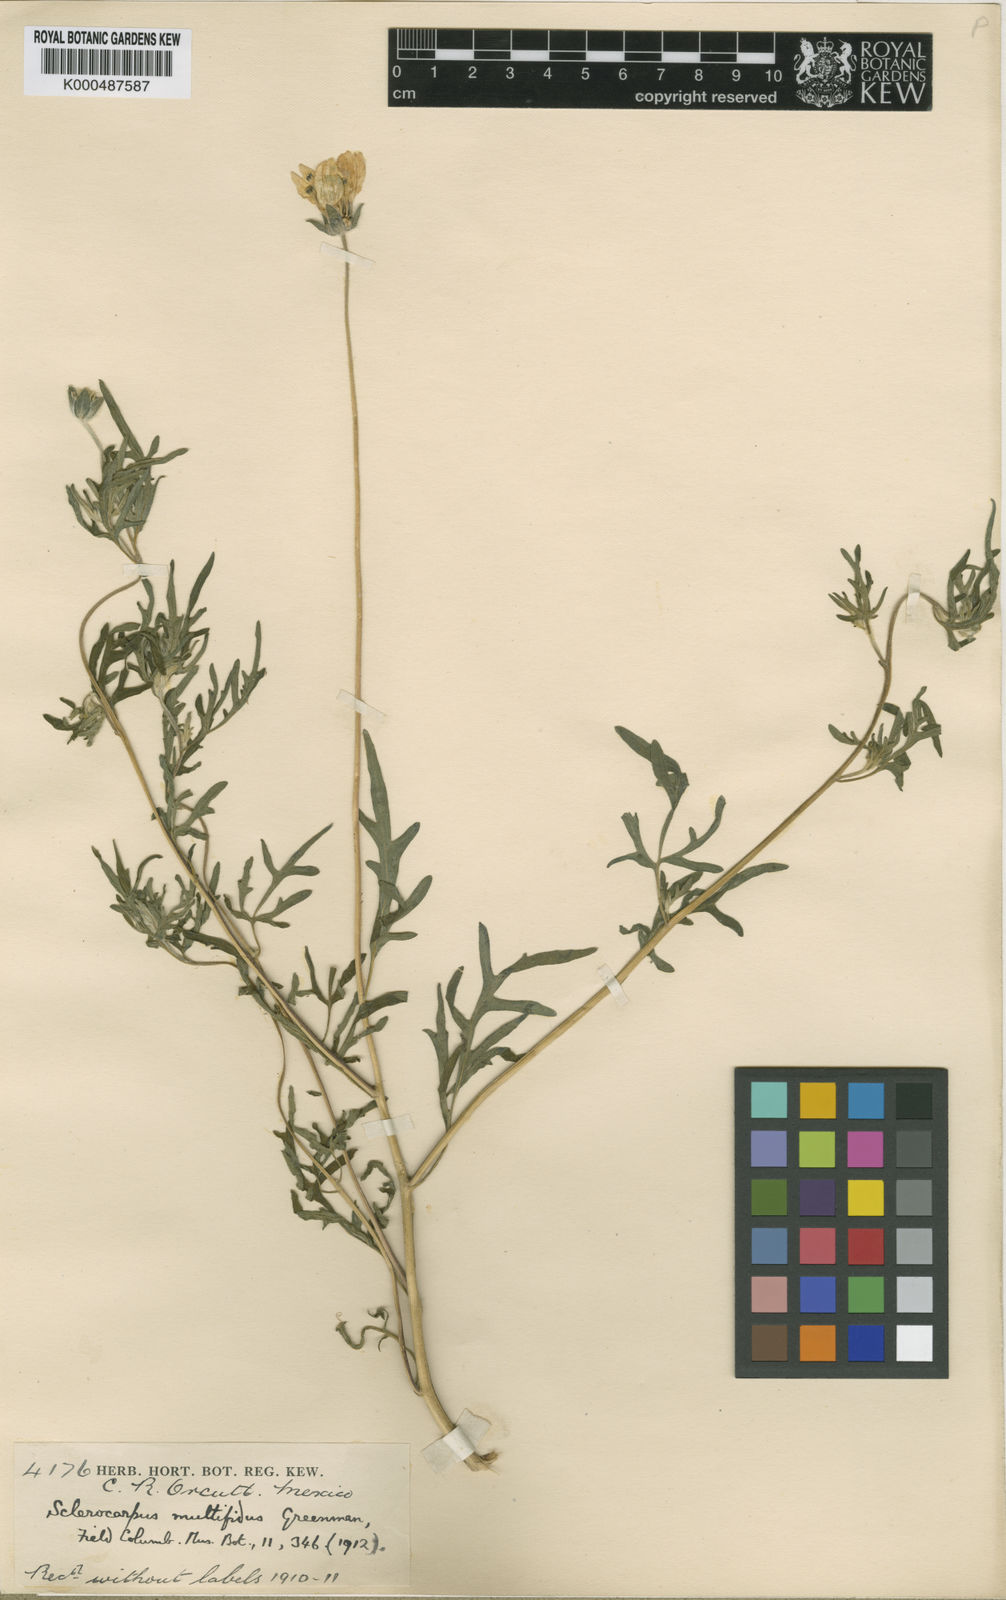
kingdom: Plantae
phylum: Tracheophyta
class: Magnoliopsida
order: Asterales
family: Asteraceae
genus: Sclerocarpus
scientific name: Sclerocarpus multifidus
